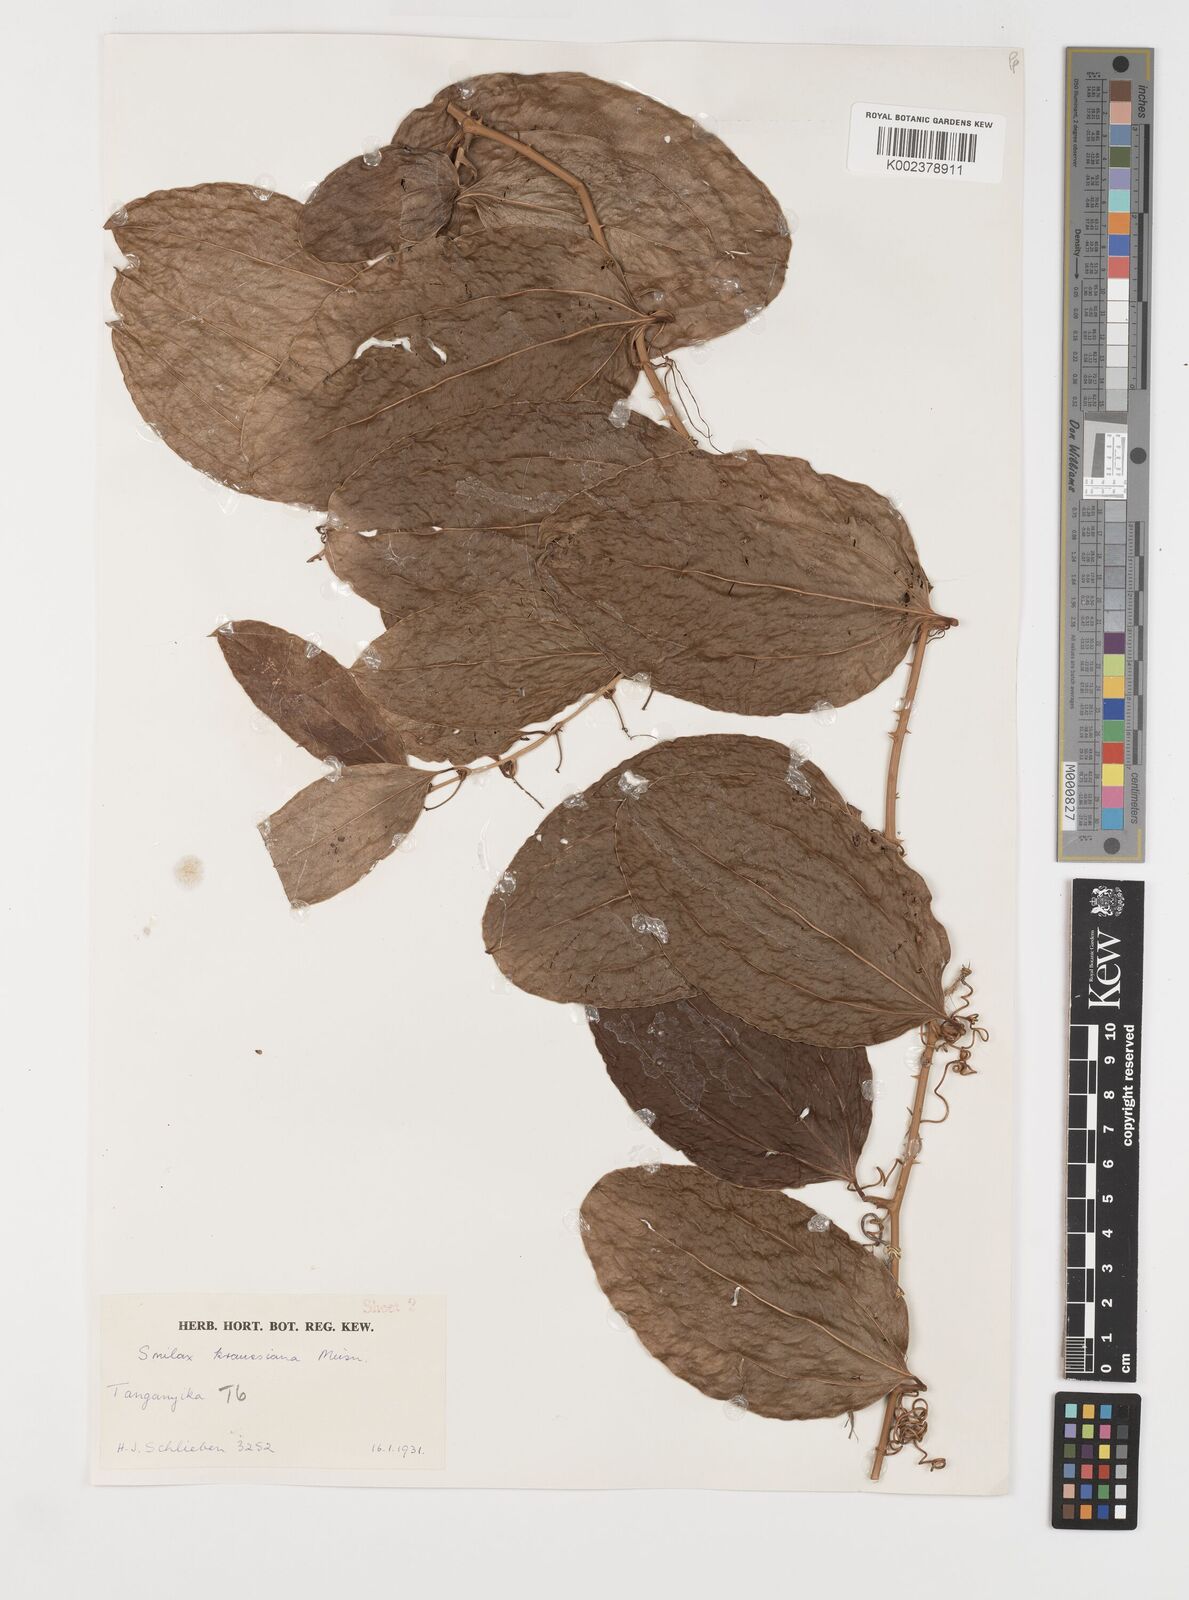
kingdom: Plantae
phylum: Tracheophyta
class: Liliopsida
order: Liliales
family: Smilacaceae
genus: Smilax
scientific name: Smilax anceps
